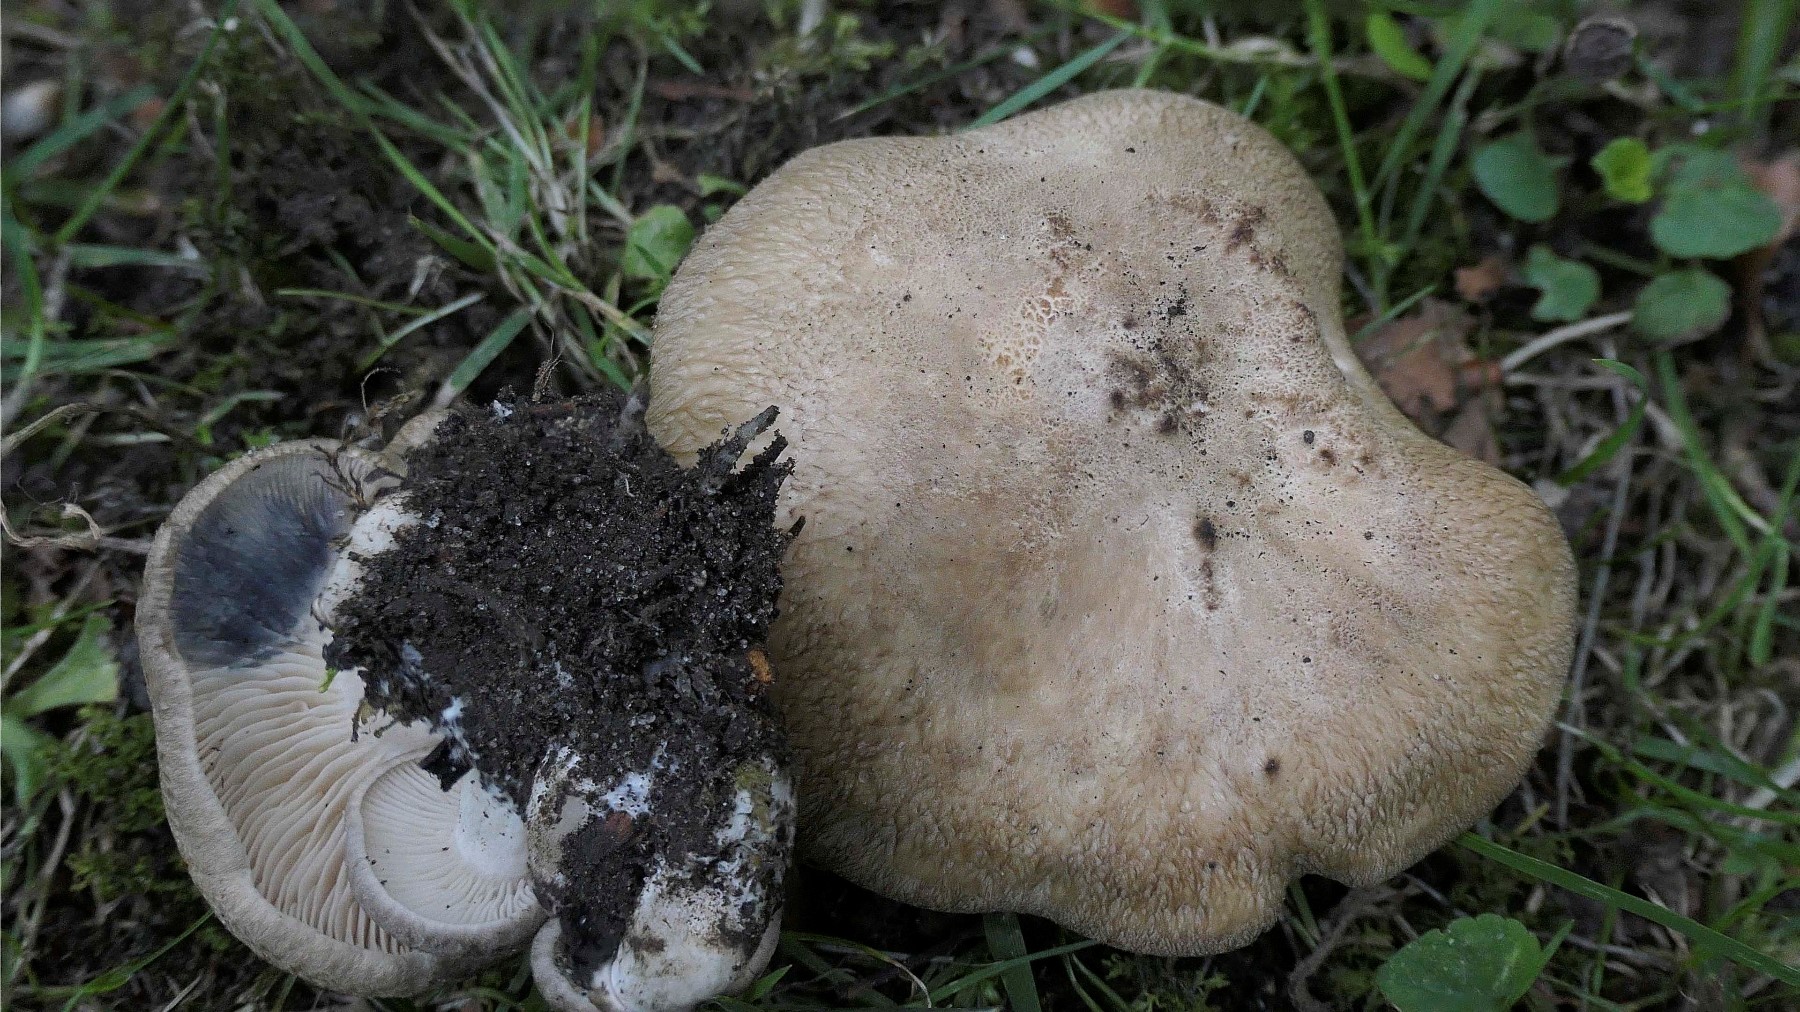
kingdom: Fungi
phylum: Basidiomycota
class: Agaricomycetes
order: Agaricales
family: Lyophyllaceae
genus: Lyophyllum
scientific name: Lyophyllum paelochroum
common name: blånende gråblad
